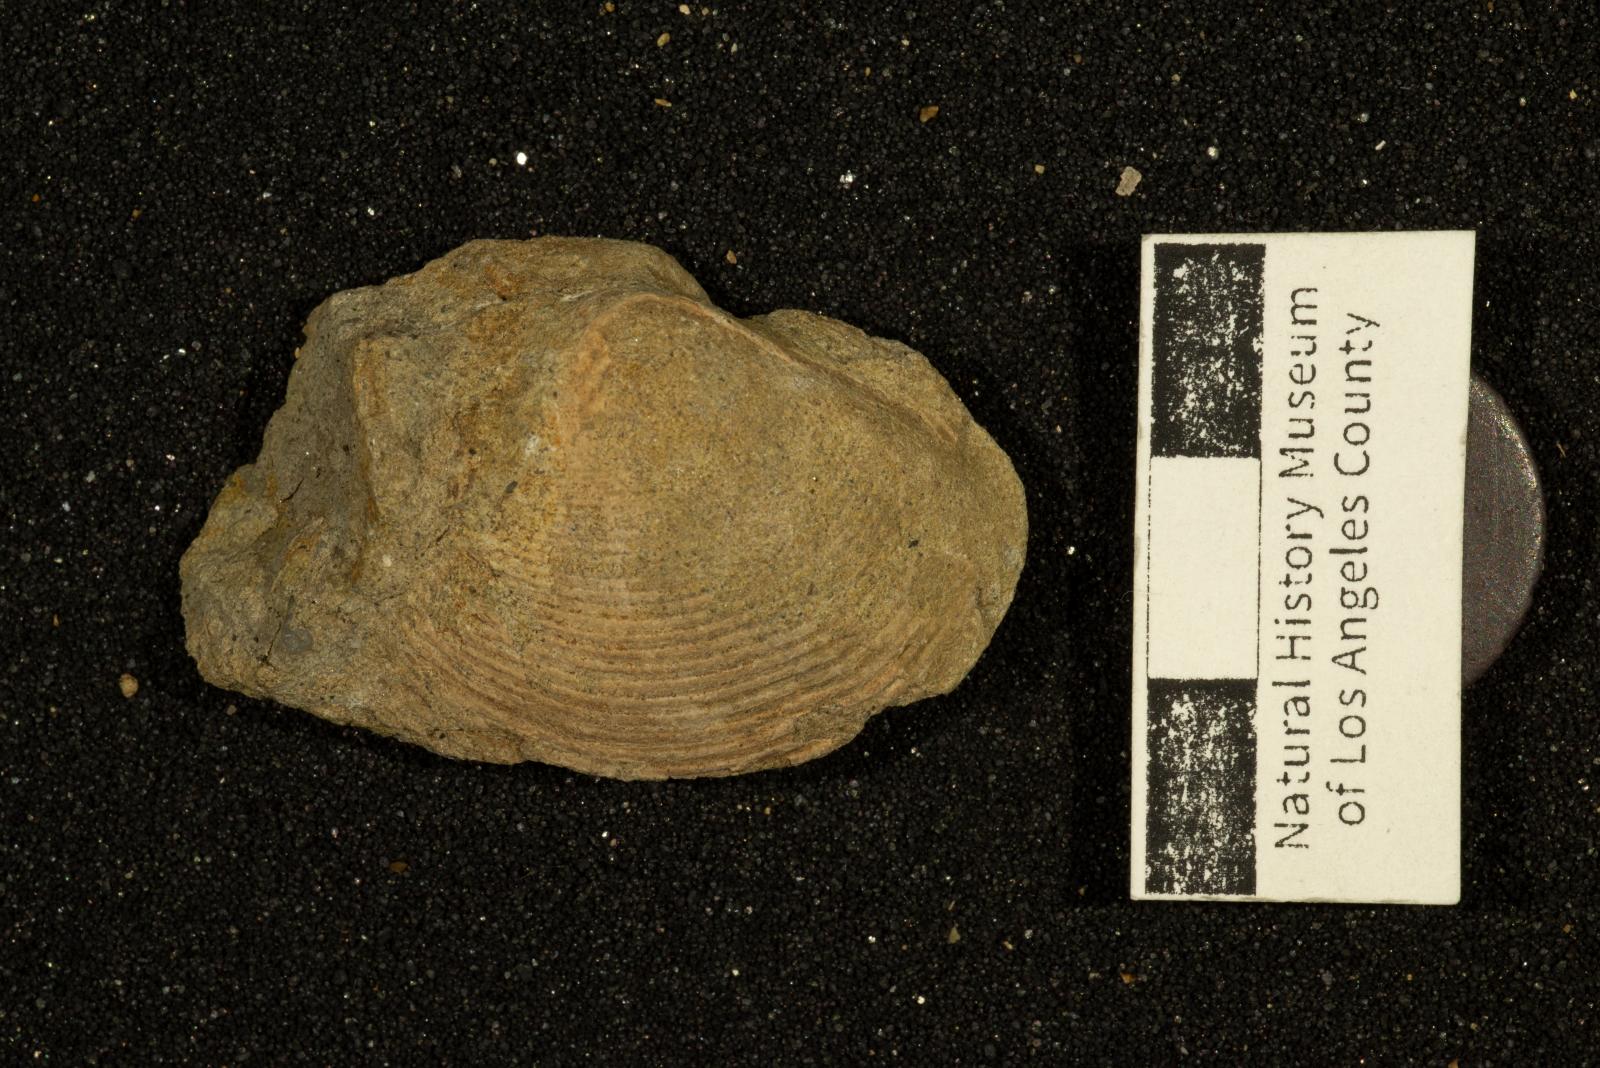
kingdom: Animalia
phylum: Mollusca
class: Bivalvia
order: Venerida
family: Mactridae
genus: Cymbophora
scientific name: Cymbophora popenoei
